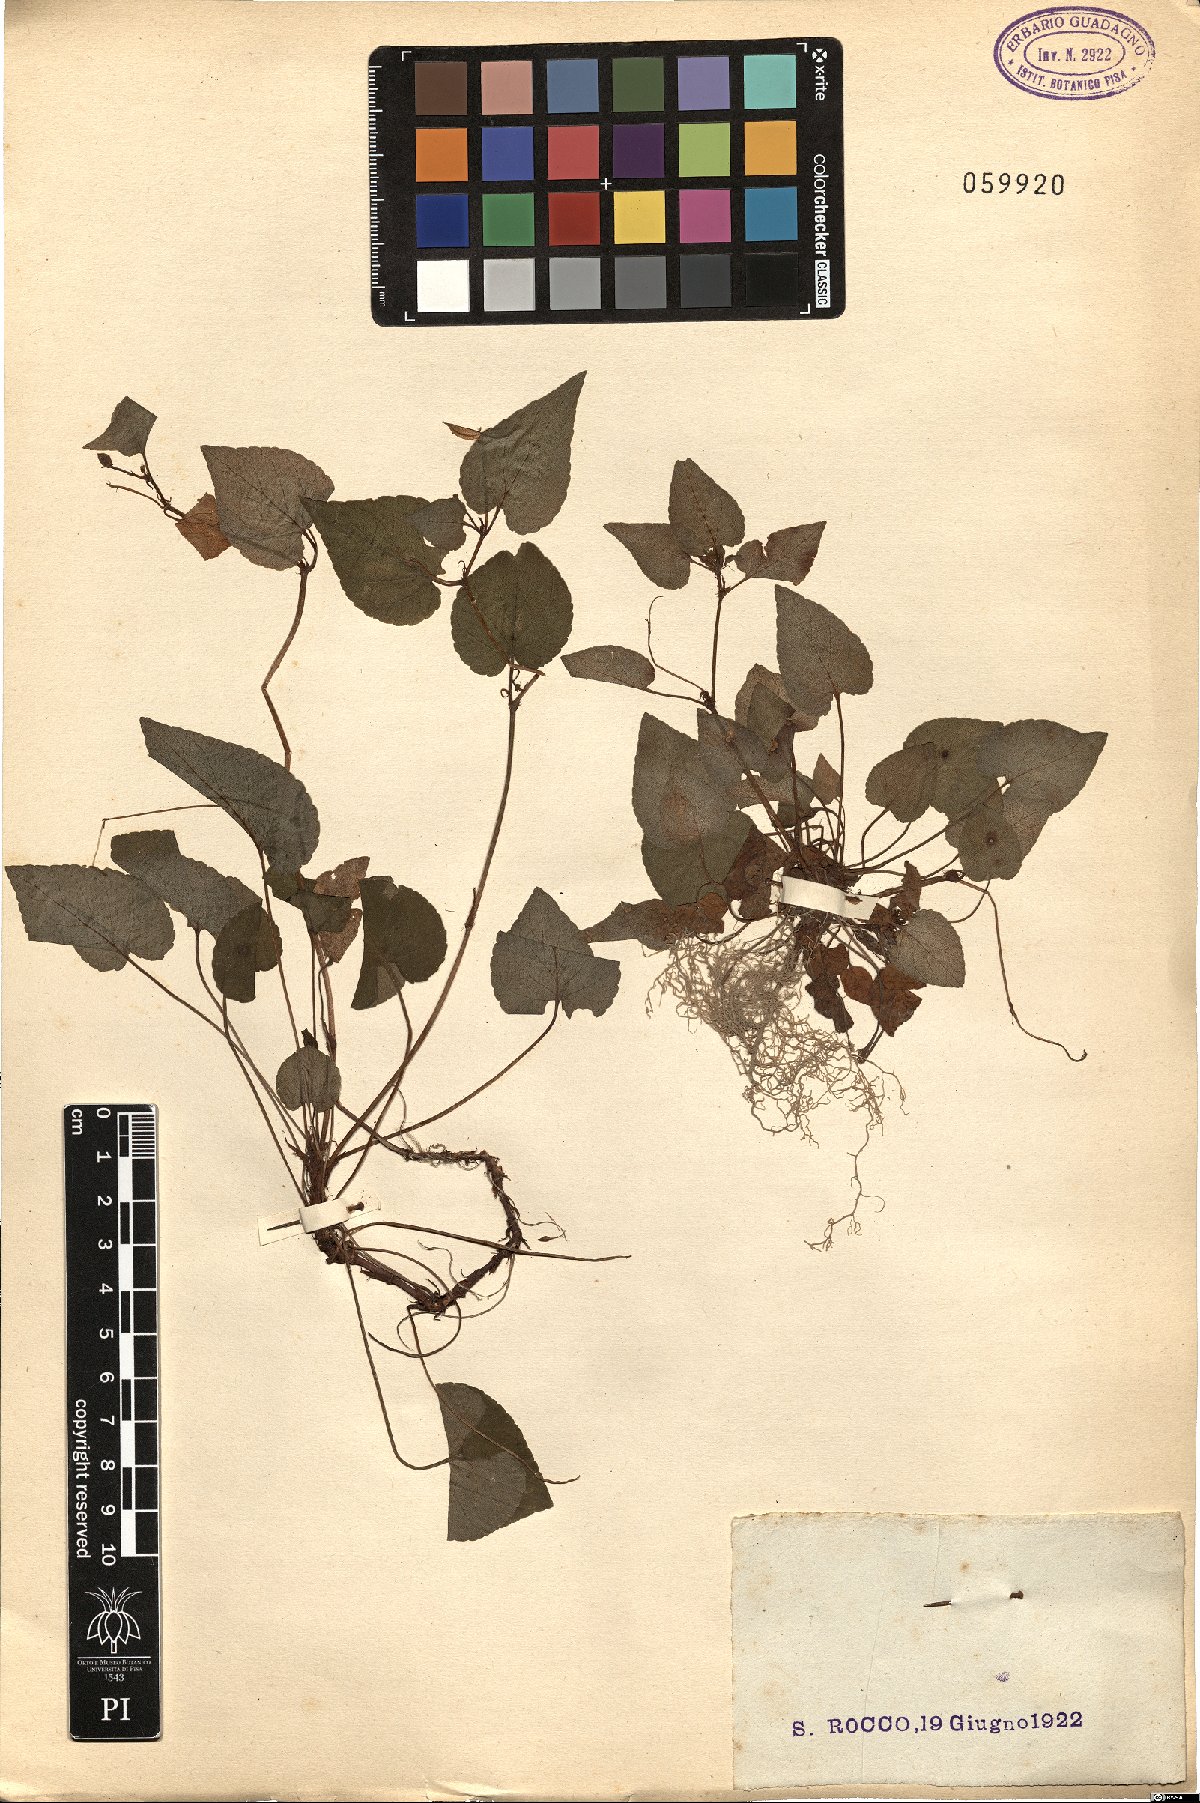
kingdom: Plantae
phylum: Tracheophyta
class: Magnoliopsida
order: Malpighiales
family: Violaceae
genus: Viola
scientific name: Viola
